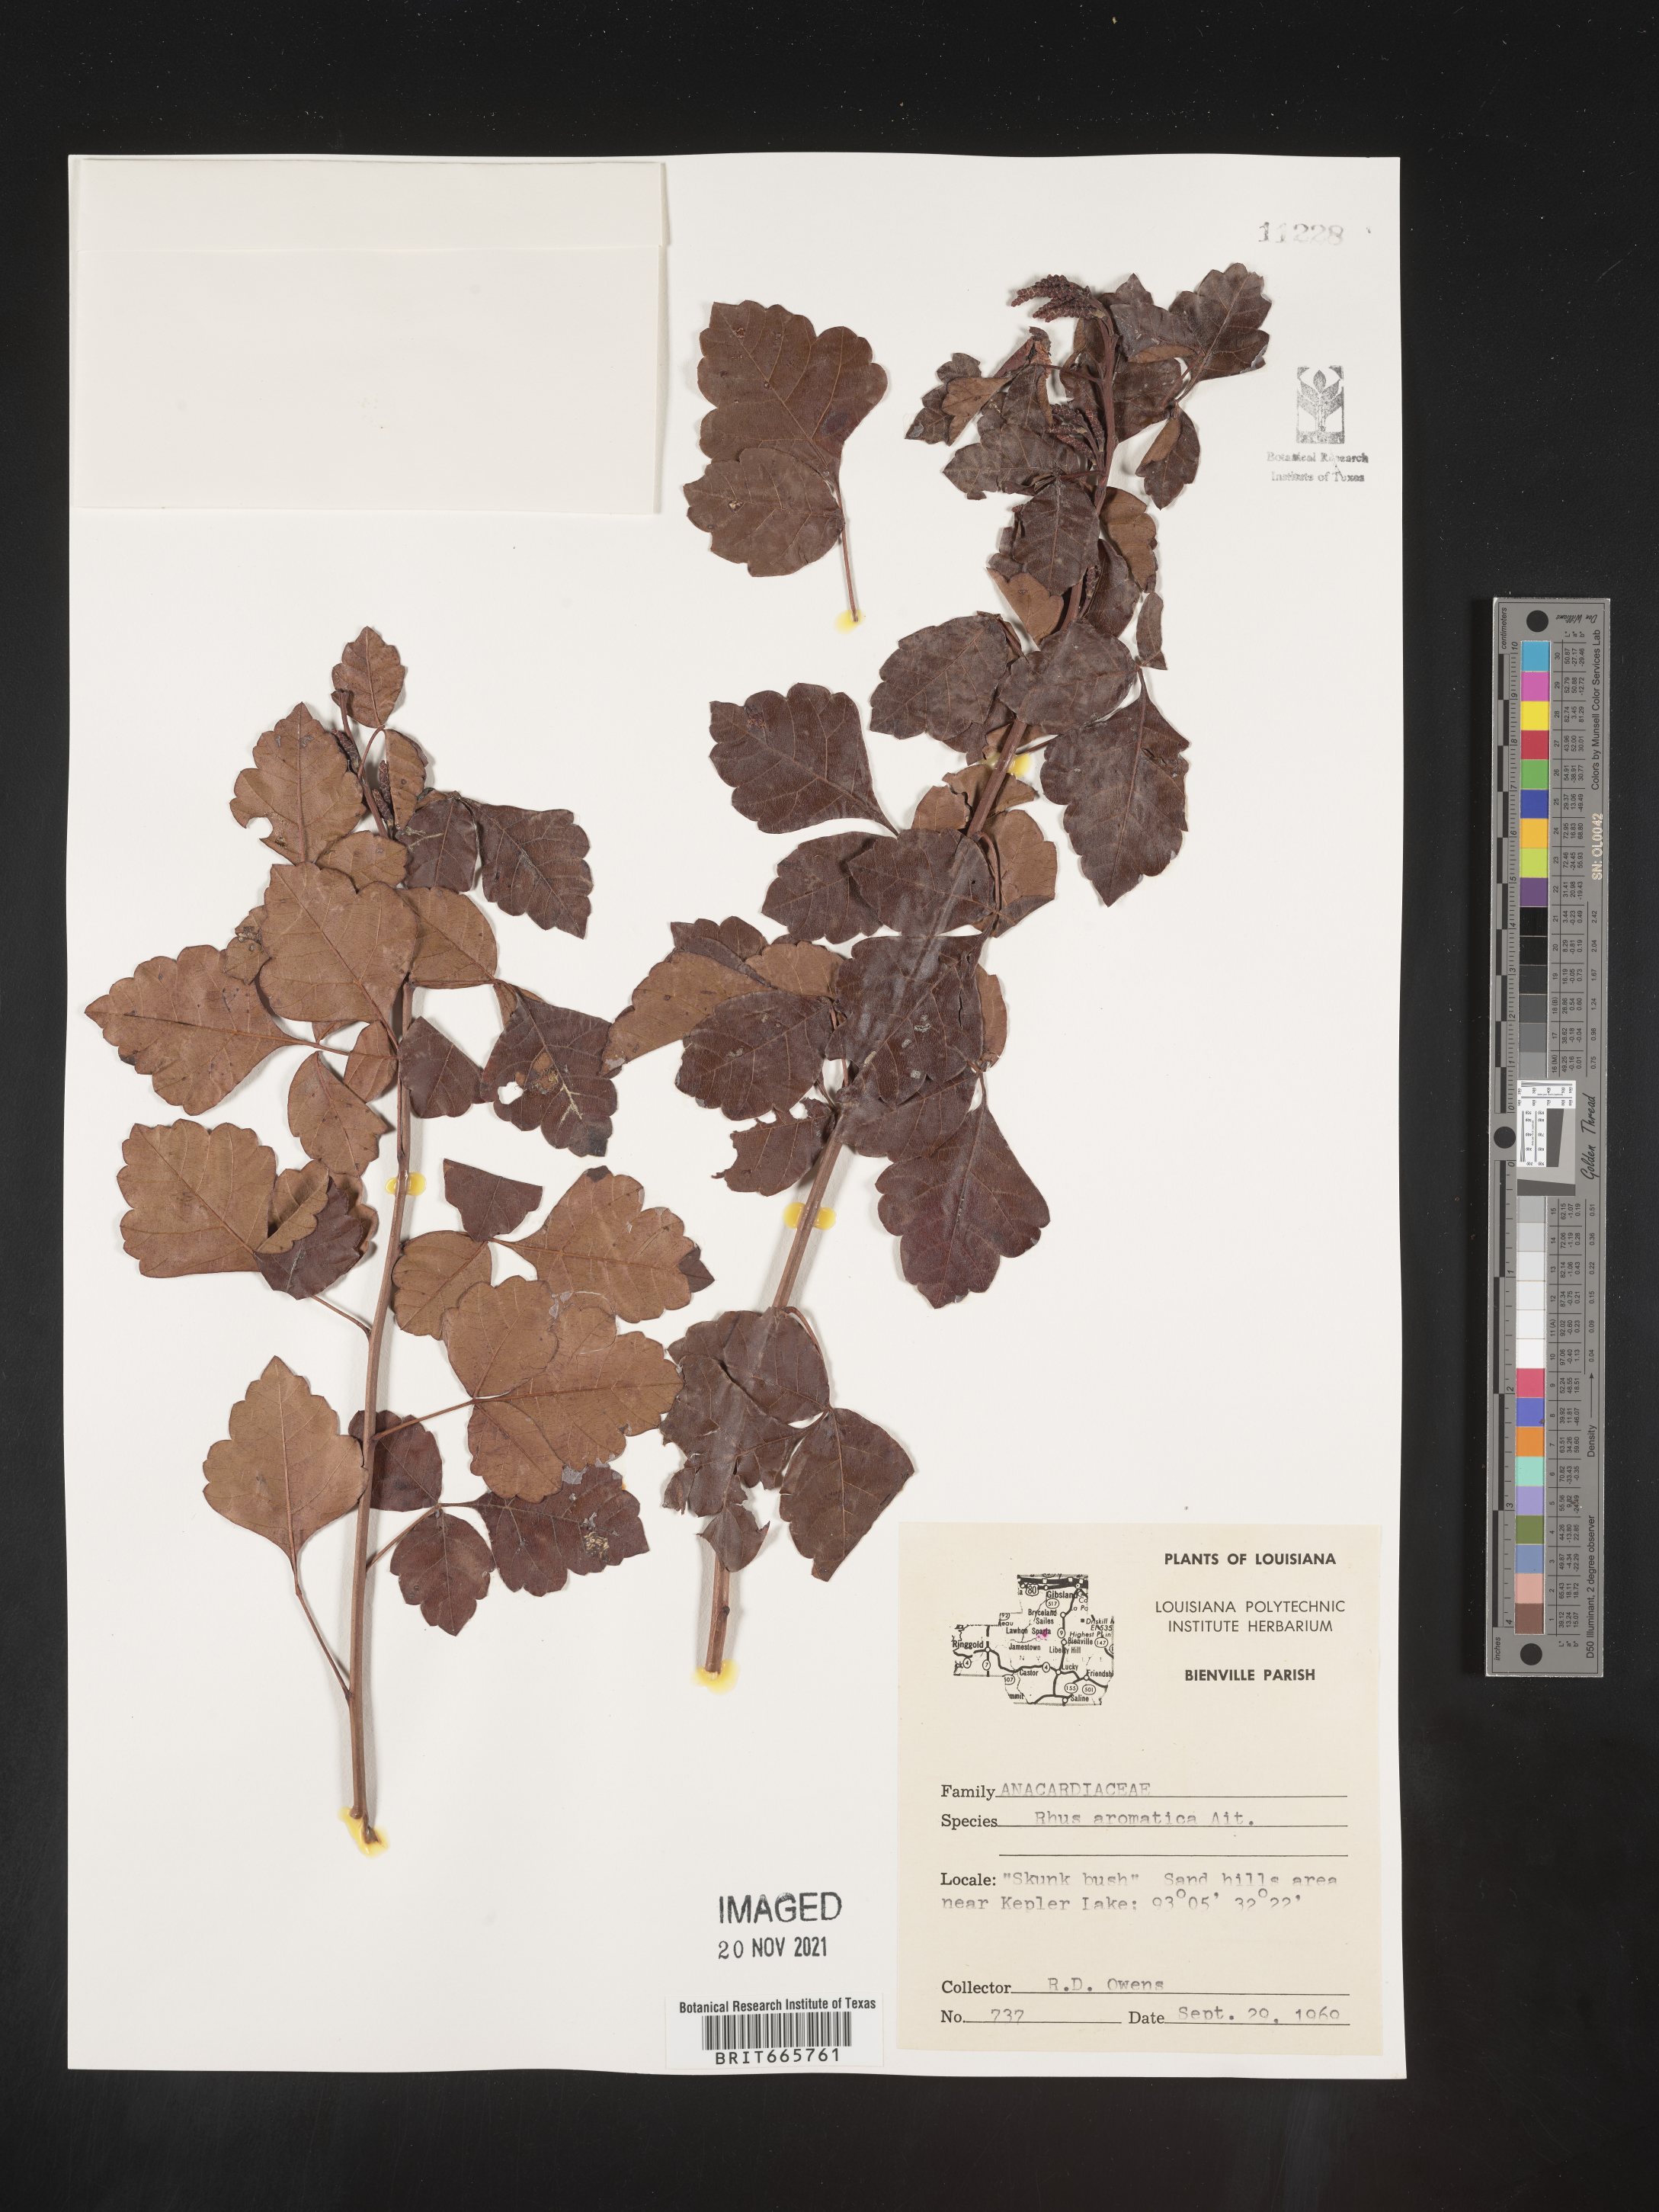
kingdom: Plantae
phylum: Tracheophyta
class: Magnoliopsida
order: Sapindales
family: Anacardiaceae
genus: Rhus
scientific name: Rhus aromatica
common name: Aromatic sumac
